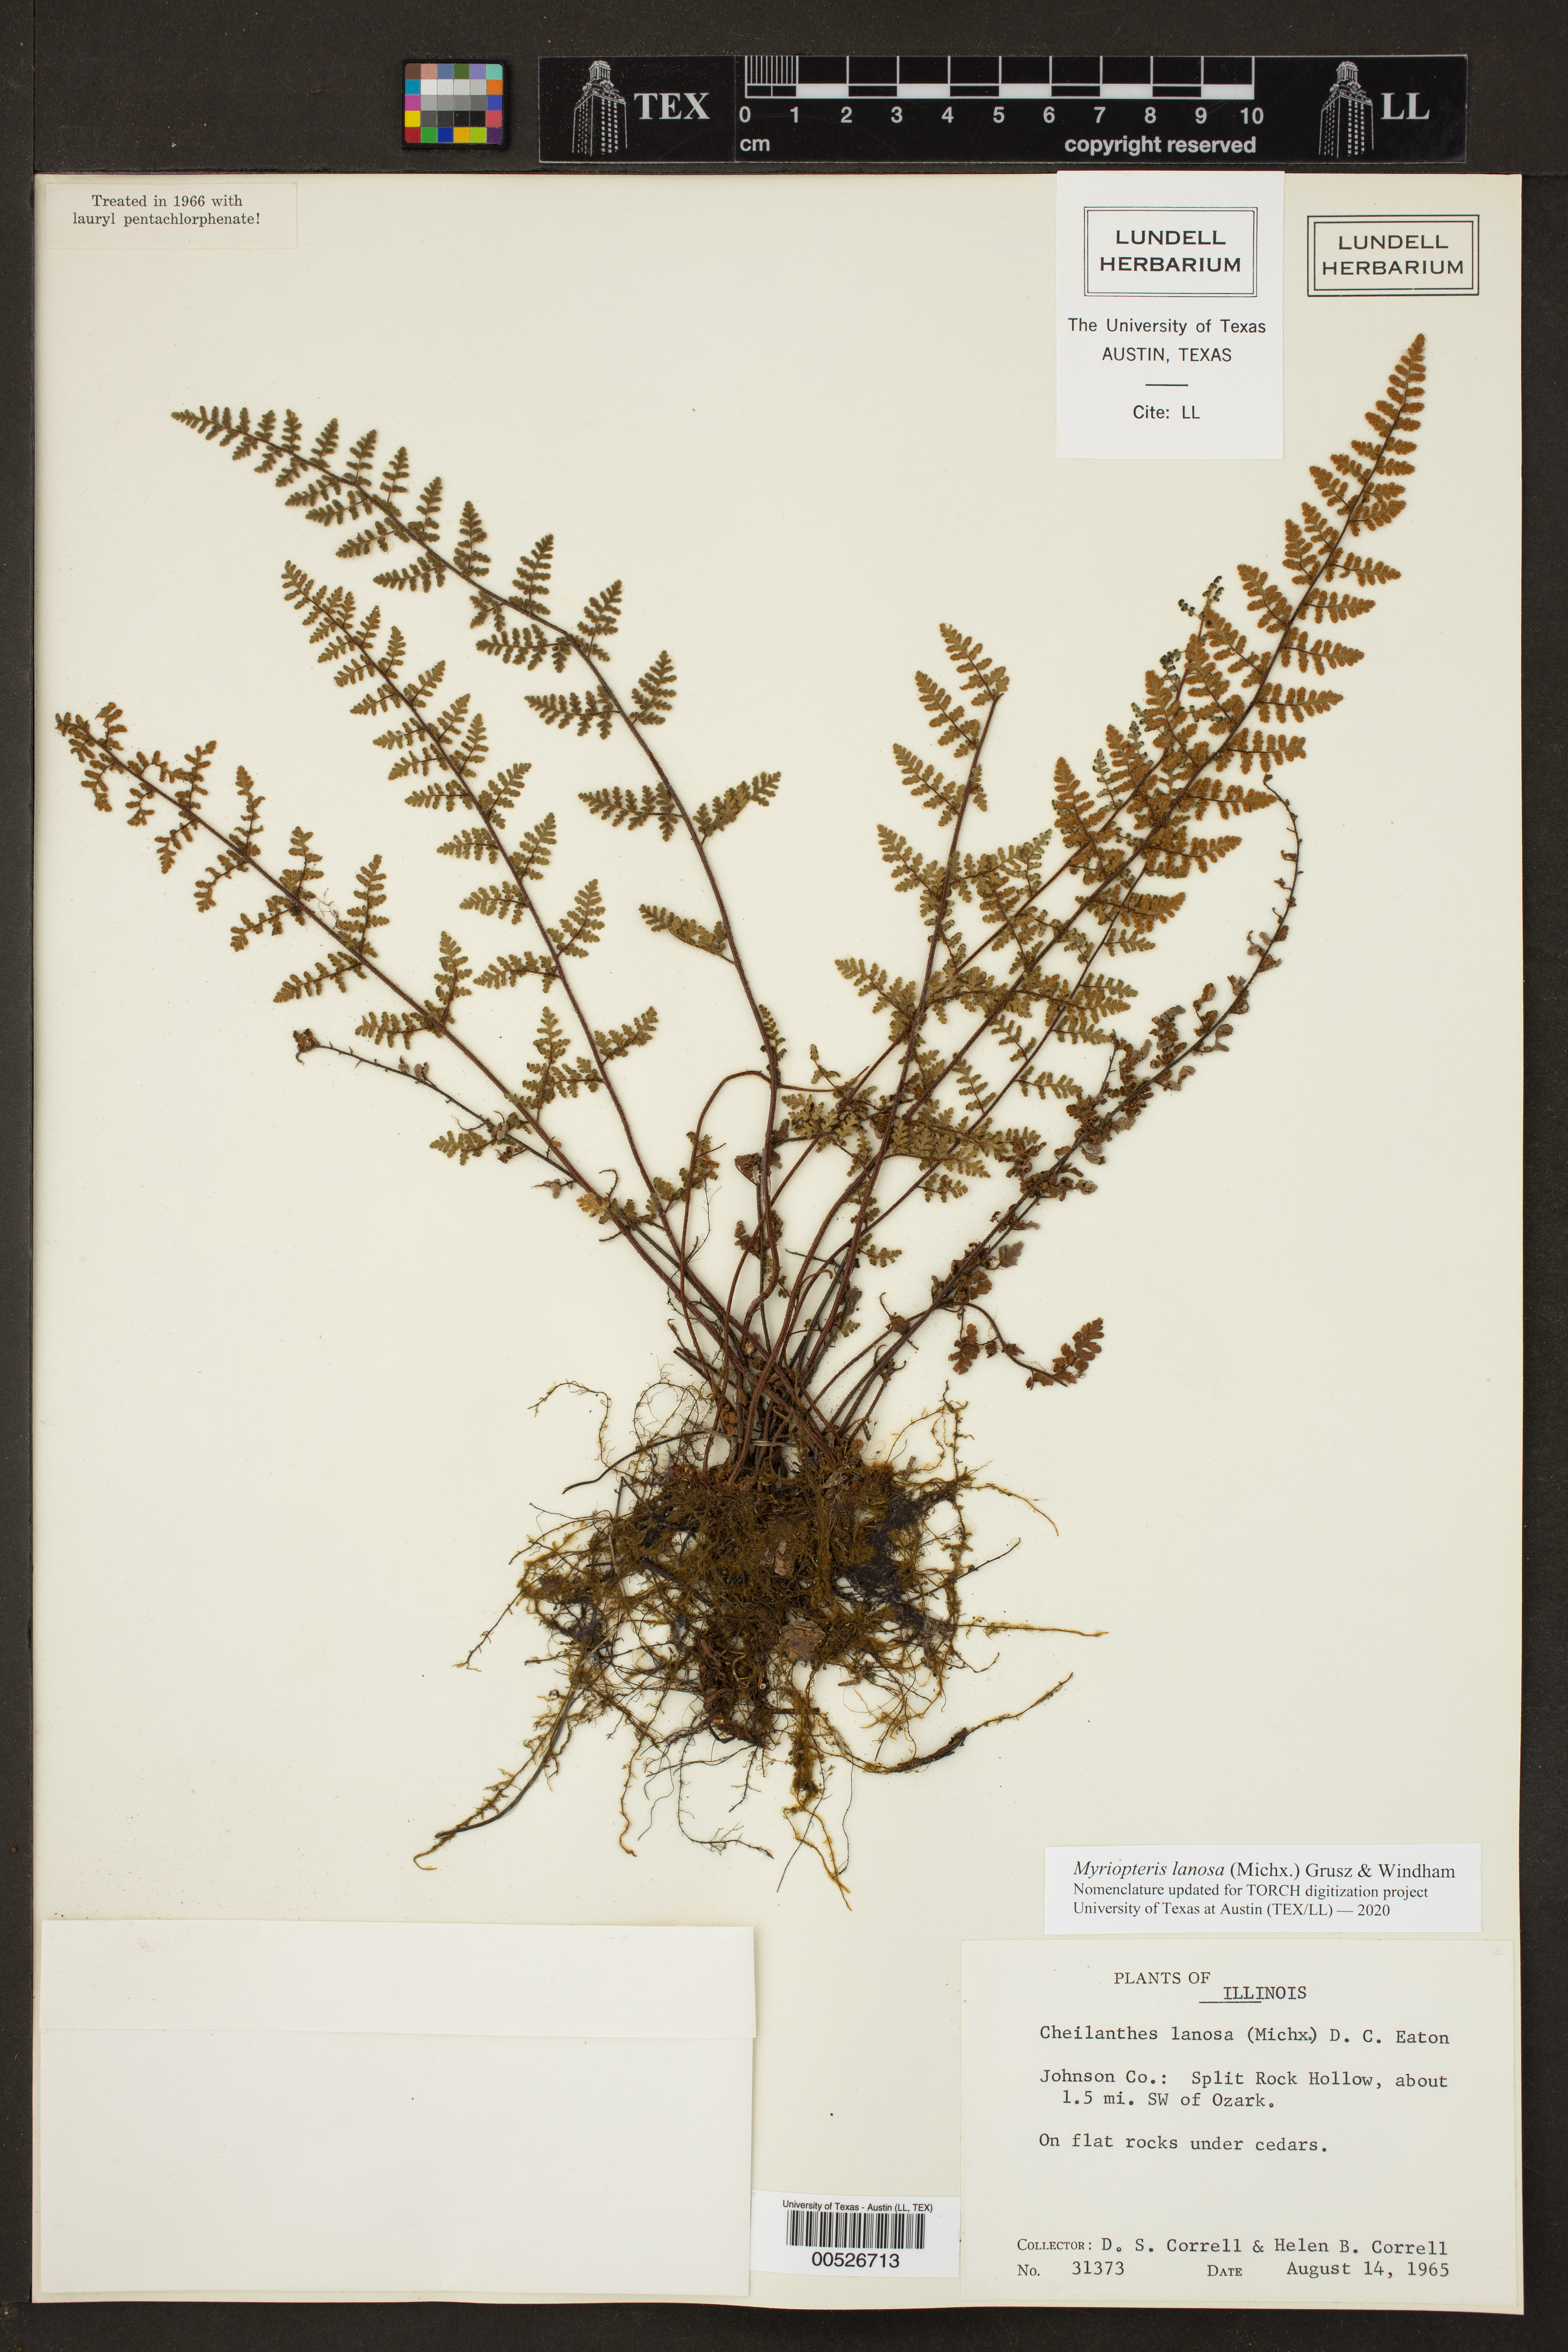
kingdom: Plantae
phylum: Tracheophyta
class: Polypodiopsida
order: Polypodiales
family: Pteridaceae
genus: Myriopteris
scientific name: Myriopteris lanosa
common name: Hairy lip fern
